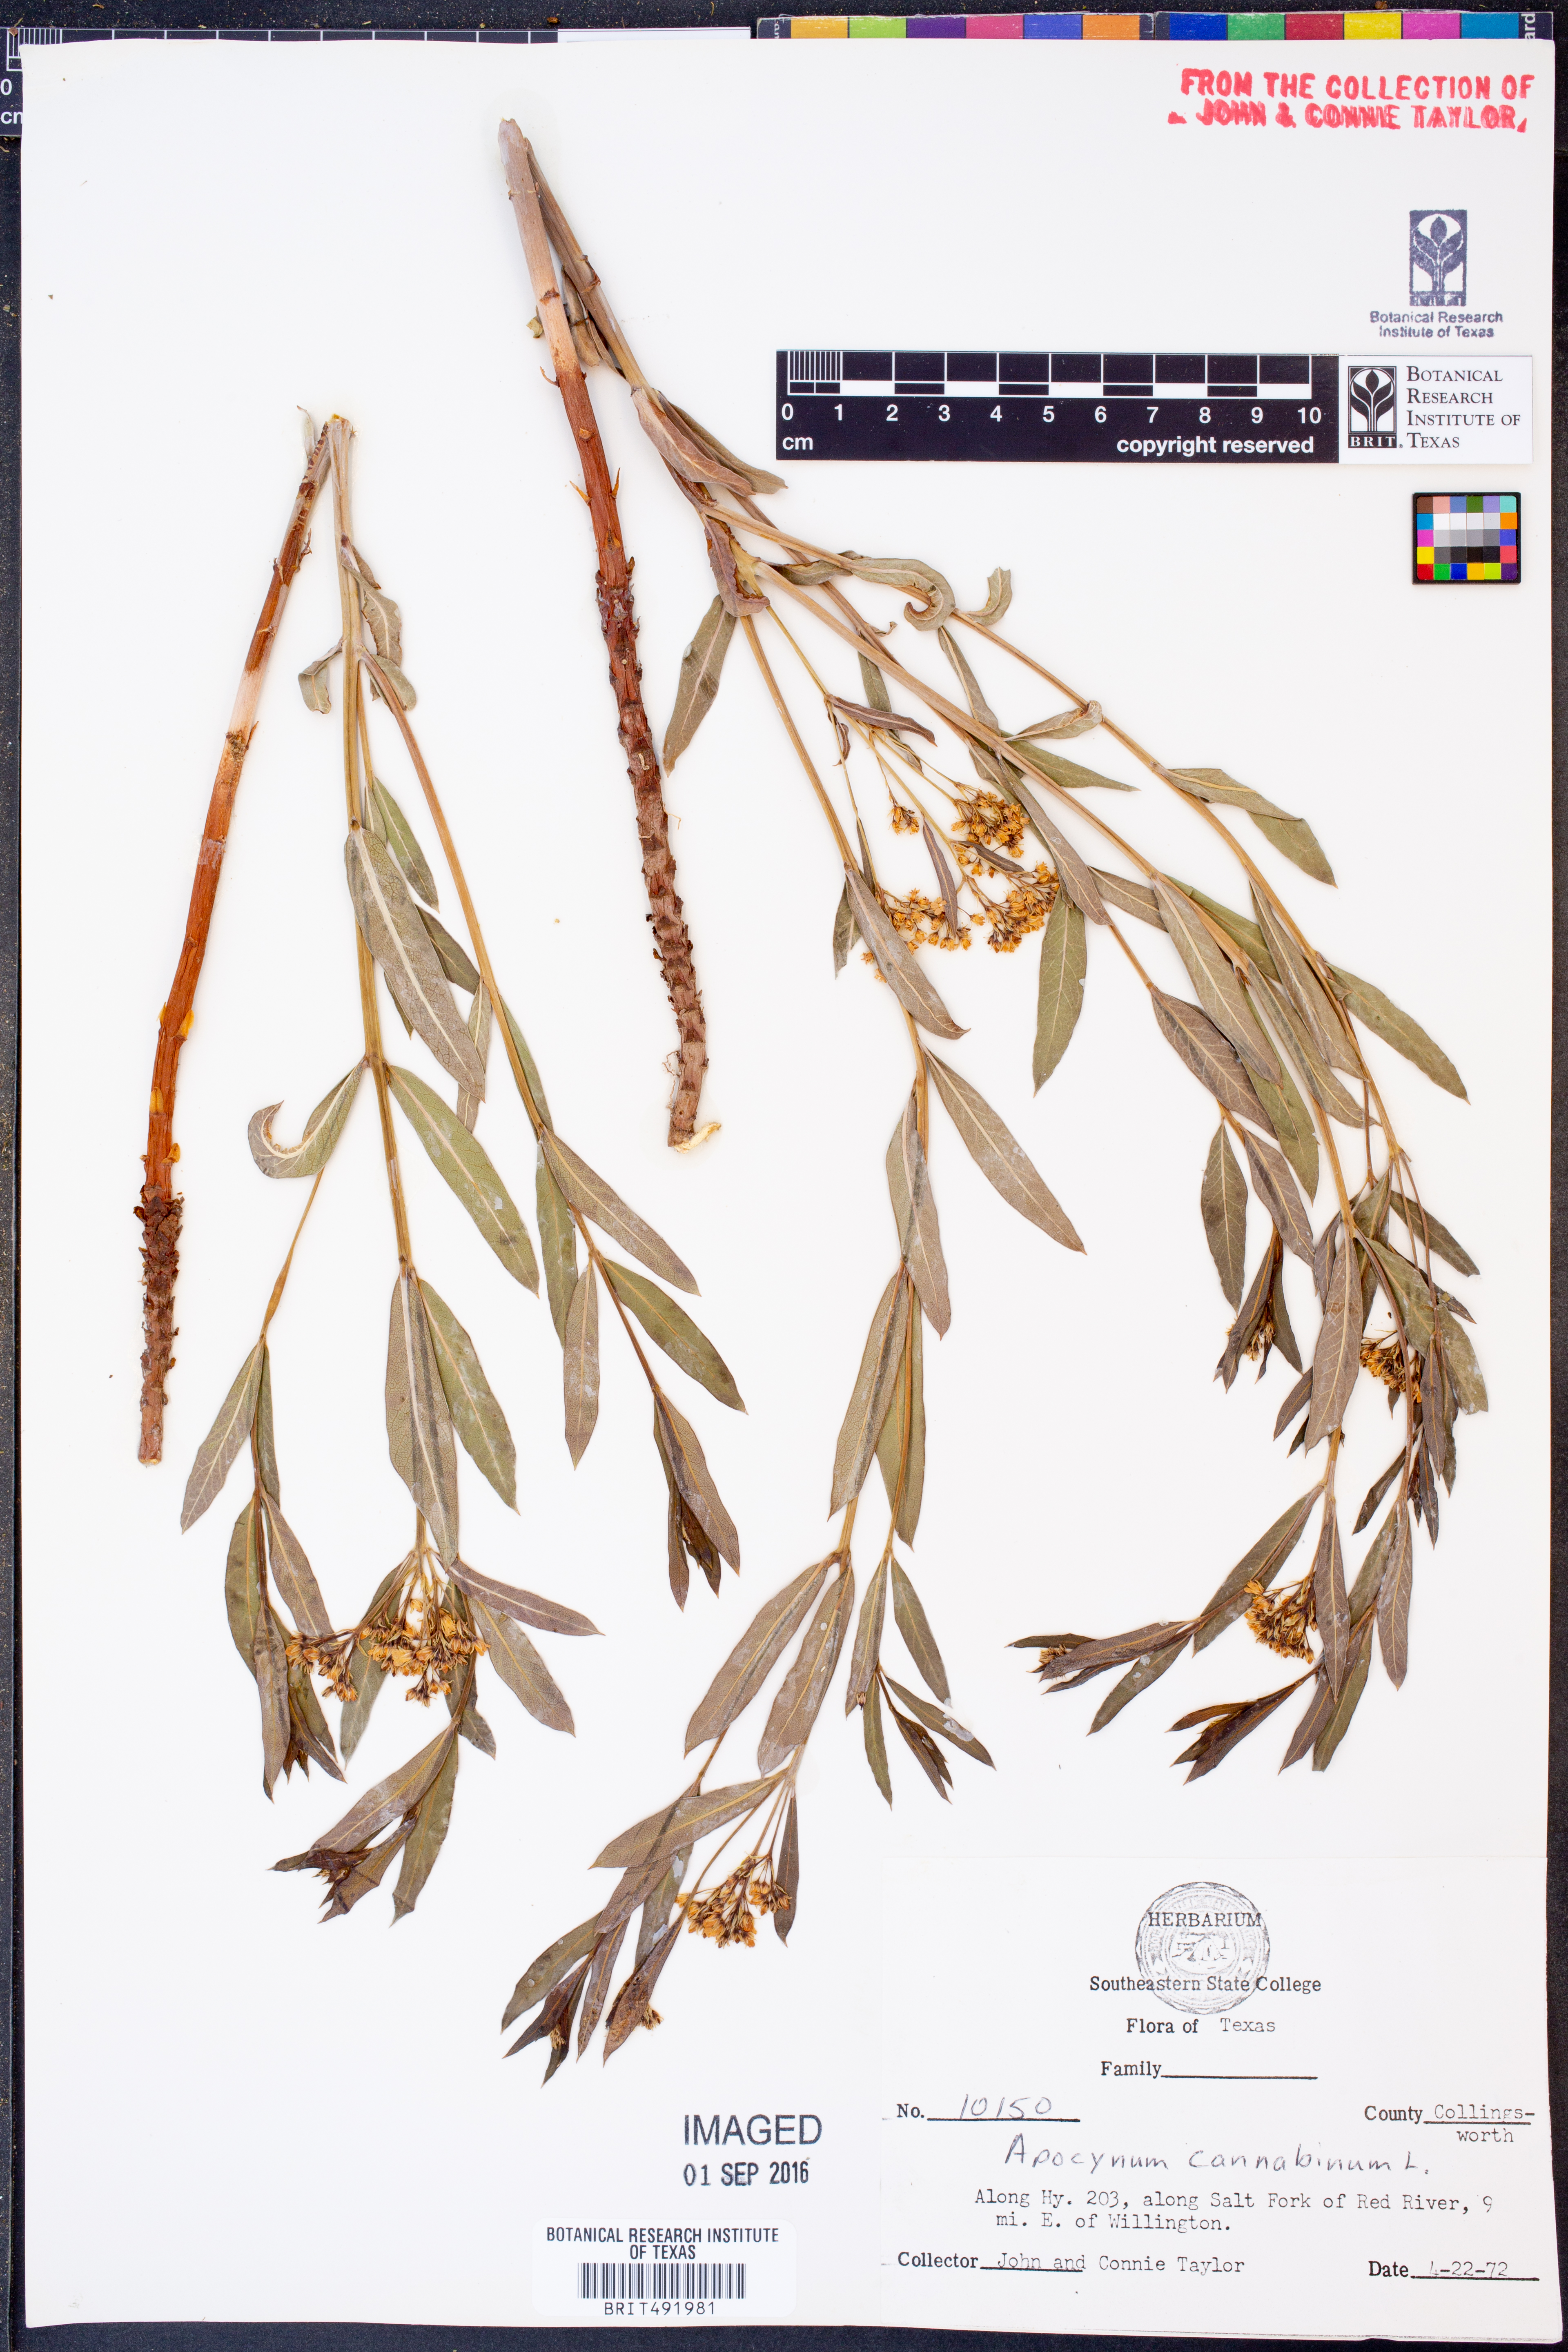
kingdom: Plantae
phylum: Tracheophyta
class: Magnoliopsida
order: Gentianales
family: Apocynaceae
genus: Apocynum
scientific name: Apocynum cannabinum
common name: Hemp dogbane
